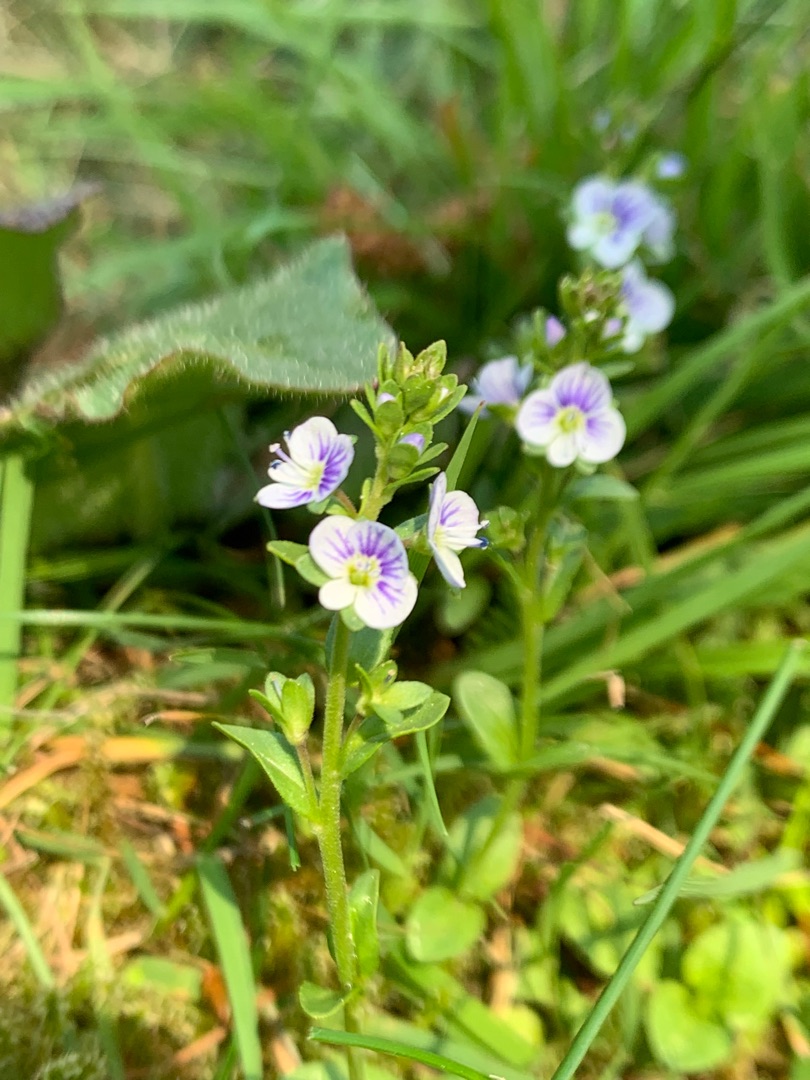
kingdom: Plantae
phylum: Tracheophyta
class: Magnoliopsida
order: Lamiales
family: Plantaginaceae
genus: Veronica
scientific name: Veronica serpyllifolia
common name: Glat ærenpris
